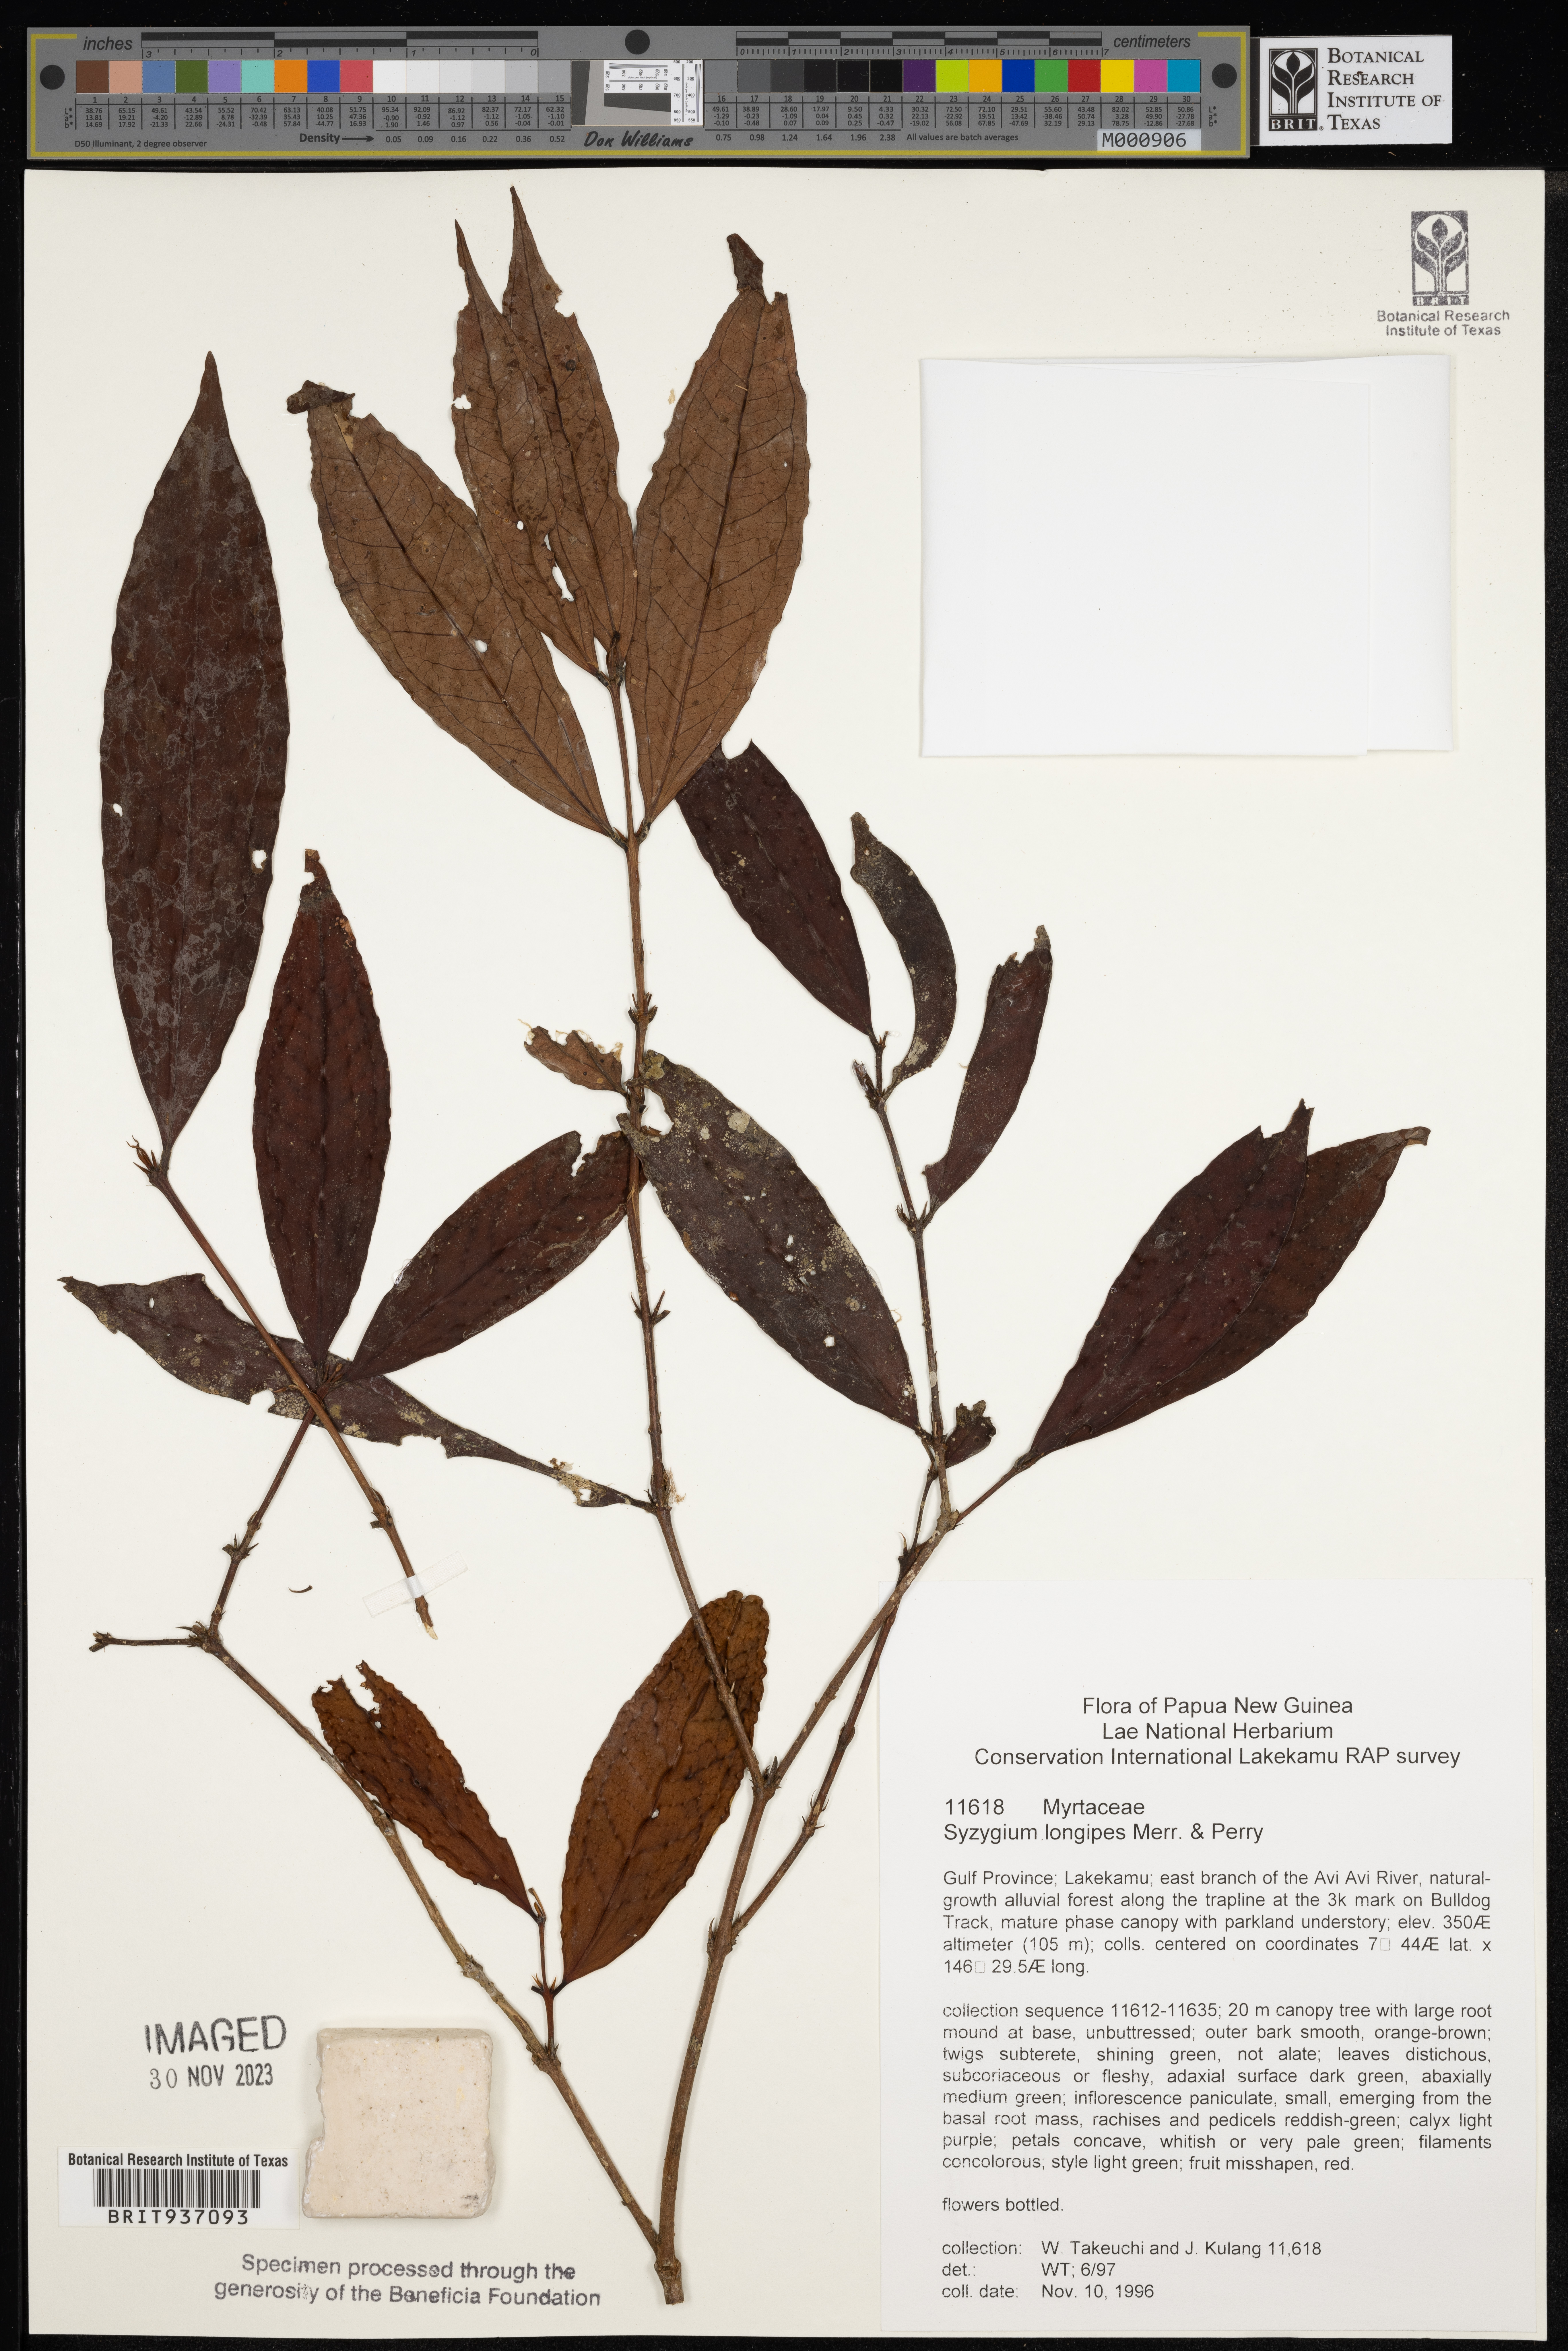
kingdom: Plantae
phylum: Tracheophyta
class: Magnoliopsida
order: Myrtales
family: Myrtaceae
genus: Syzygium
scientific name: Syzygium
